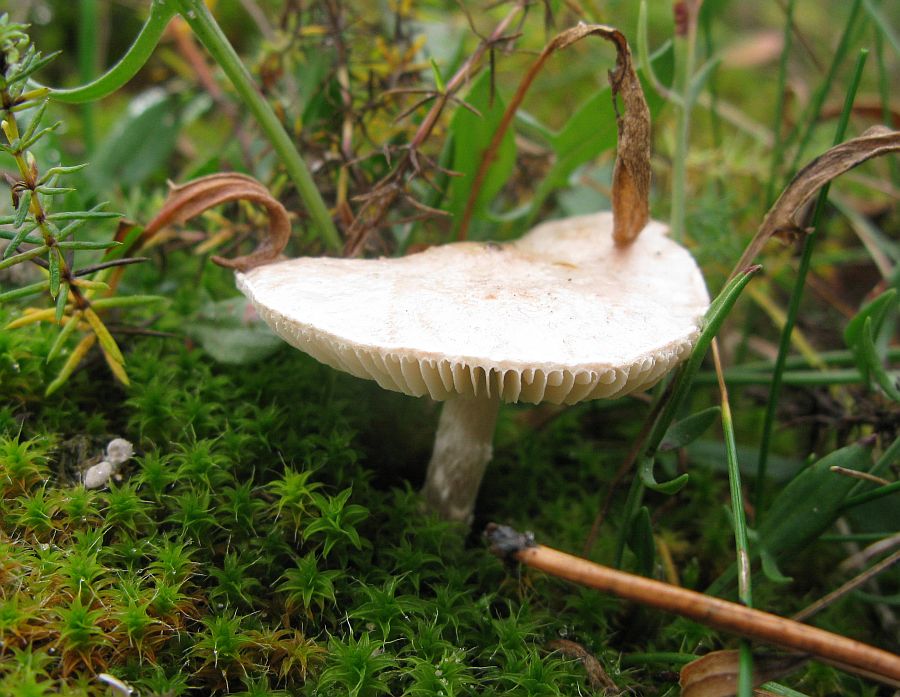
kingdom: Fungi
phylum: Basidiomycota
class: Agaricomycetes
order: Agaricales
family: Agaricaceae
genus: Lepiota
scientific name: Lepiota erminea
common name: hvid parasolhat
